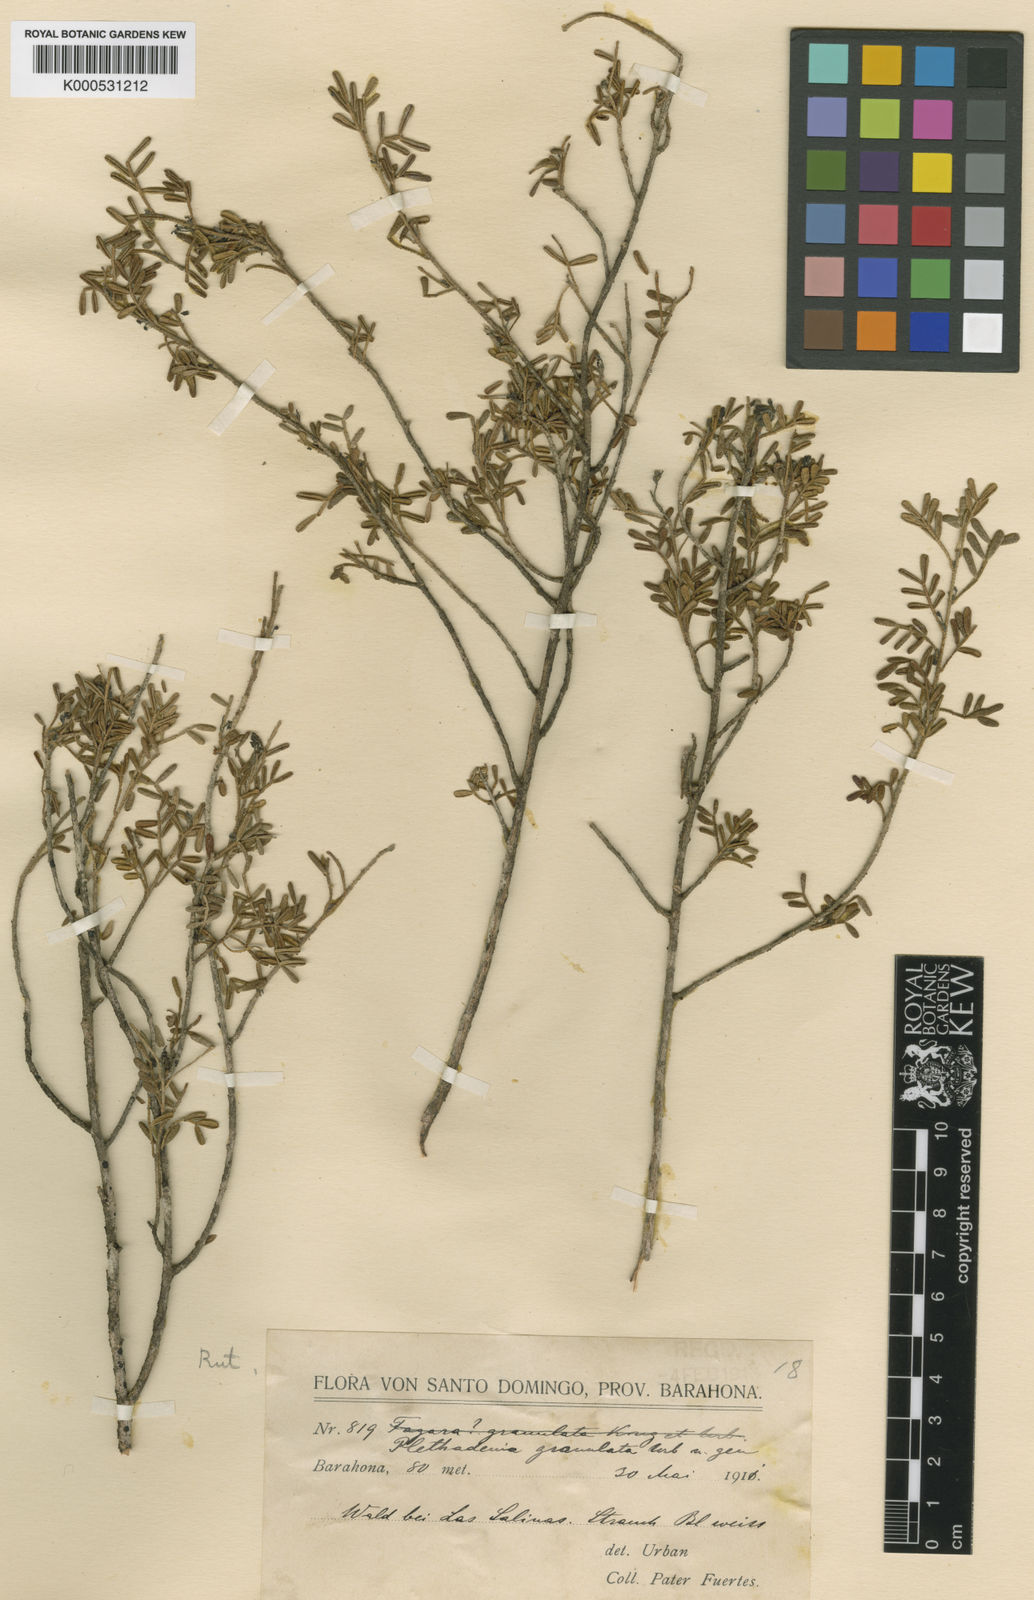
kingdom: Plantae
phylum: Tracheophyta
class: Magnoliopsida
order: Sapindales
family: Rutaceae
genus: Plethadenia
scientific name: Plethadenia granulata
